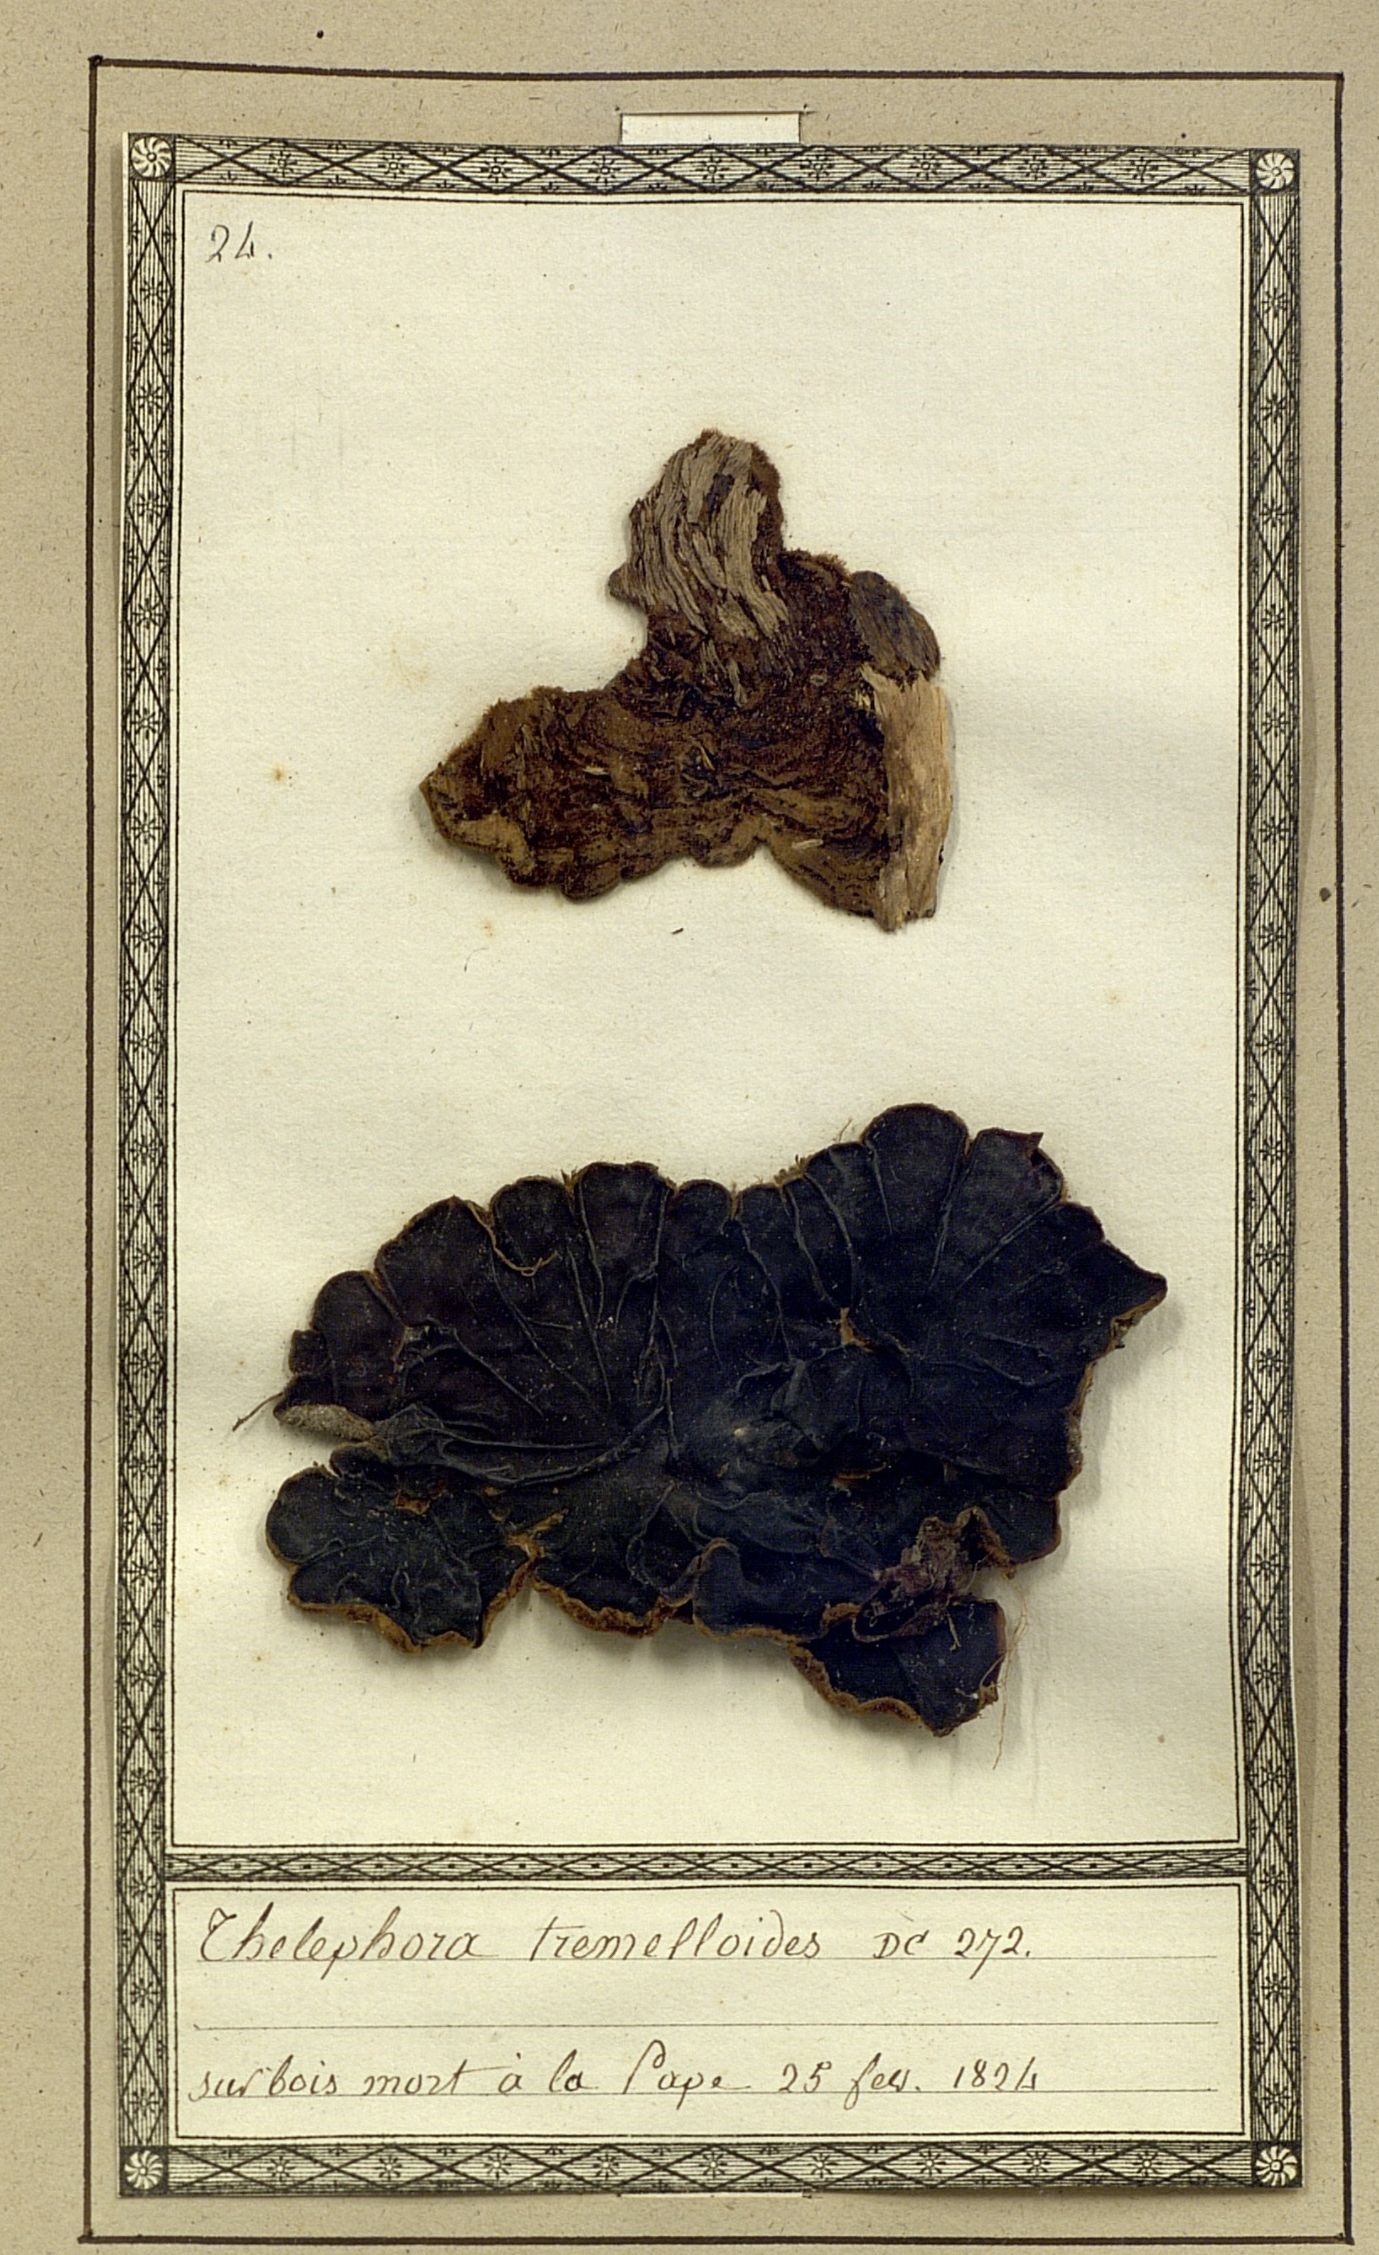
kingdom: Fungi
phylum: Basidiomycota
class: Agaricomycetes
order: Thelephorales
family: Thelephoraceae
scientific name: Thelephoraceae
